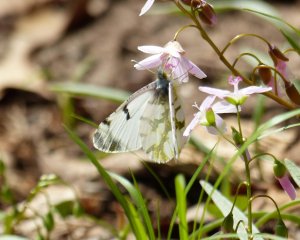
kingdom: Animalia
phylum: Arthropoda
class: Insecta
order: Lepidoptera
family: Pieridae
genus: Euchloe
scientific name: Euchloe olympia
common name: Olympia Marble
